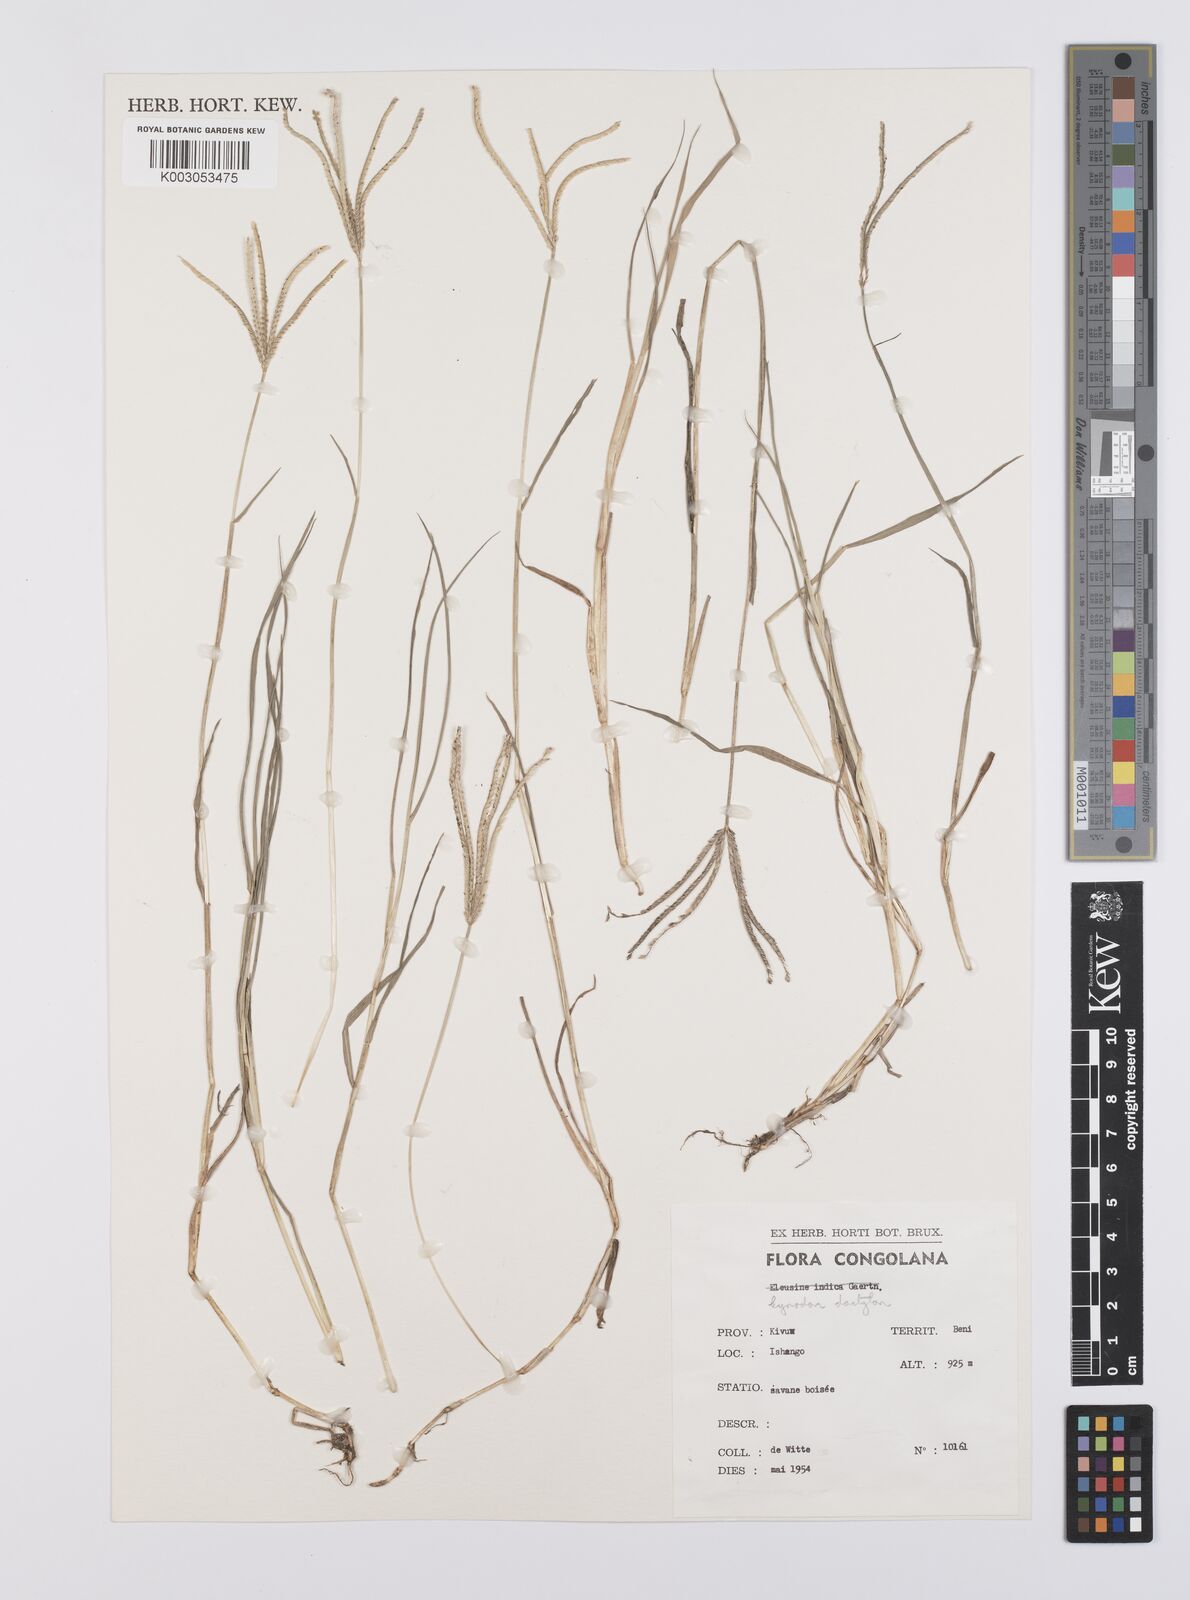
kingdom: Plantae
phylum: Tracheophyta
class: Liliopsida
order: Poales
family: Poaceae
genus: Cynodon
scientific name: Cynodon dactylon
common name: Bermuda grass
